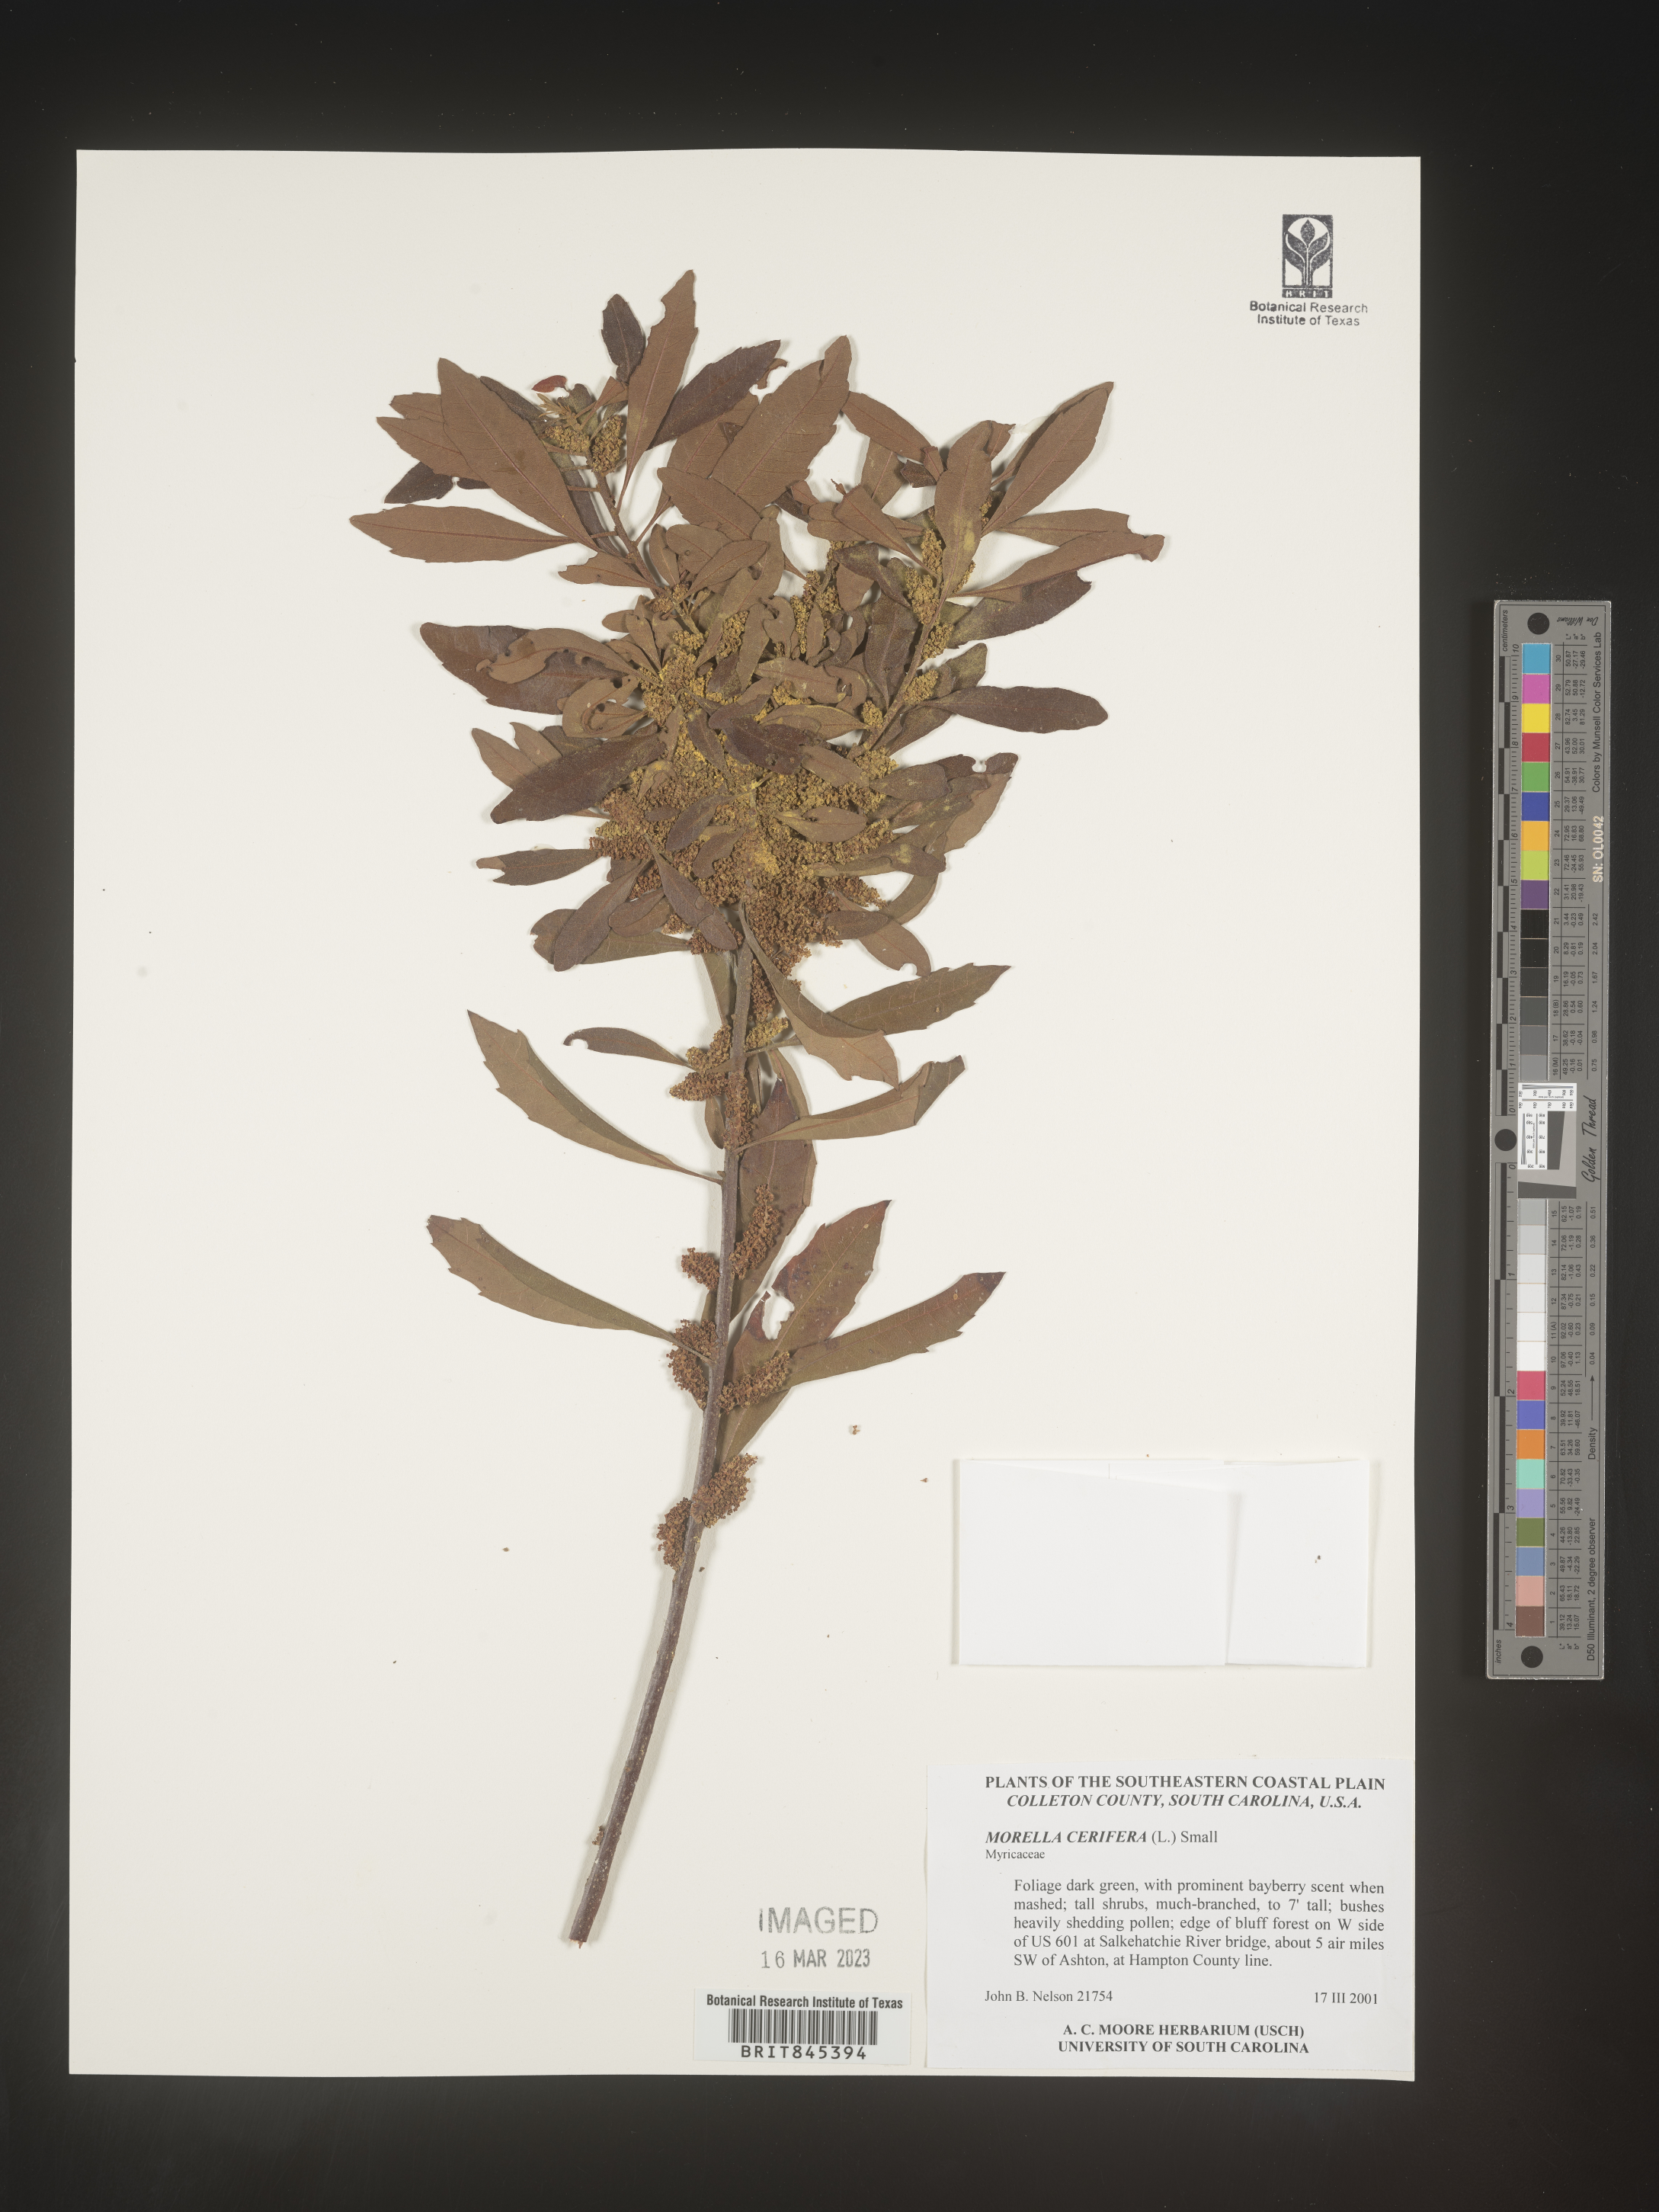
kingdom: Plantae
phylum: Tracheophyta
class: Magnoliopsida
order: Fagales
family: Myricaceae
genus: Morella
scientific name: Morella cerifera
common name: Wax myrtle
